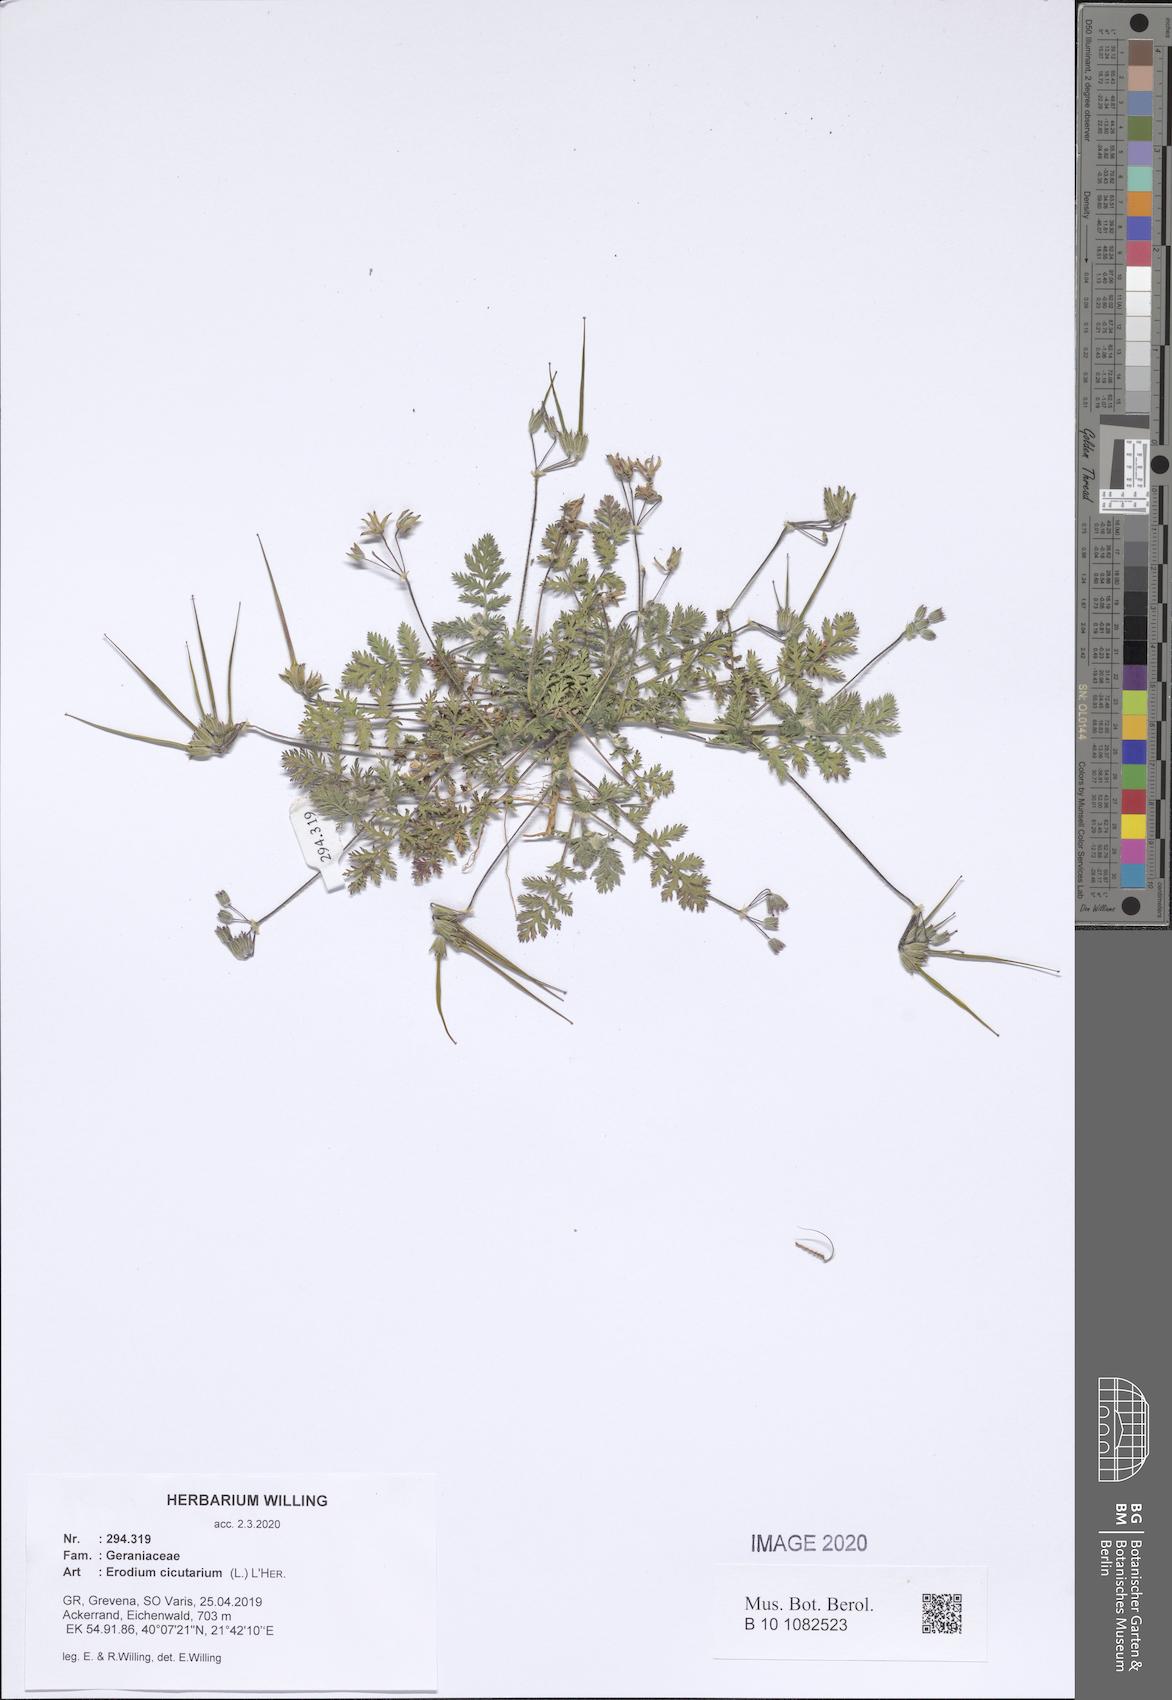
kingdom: Plantae
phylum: Tracheophyta
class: Magnoliopsida
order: Geraniales
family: Geraniaceae
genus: Erodium
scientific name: Erodium cicutarium
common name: Common stork's-bill
